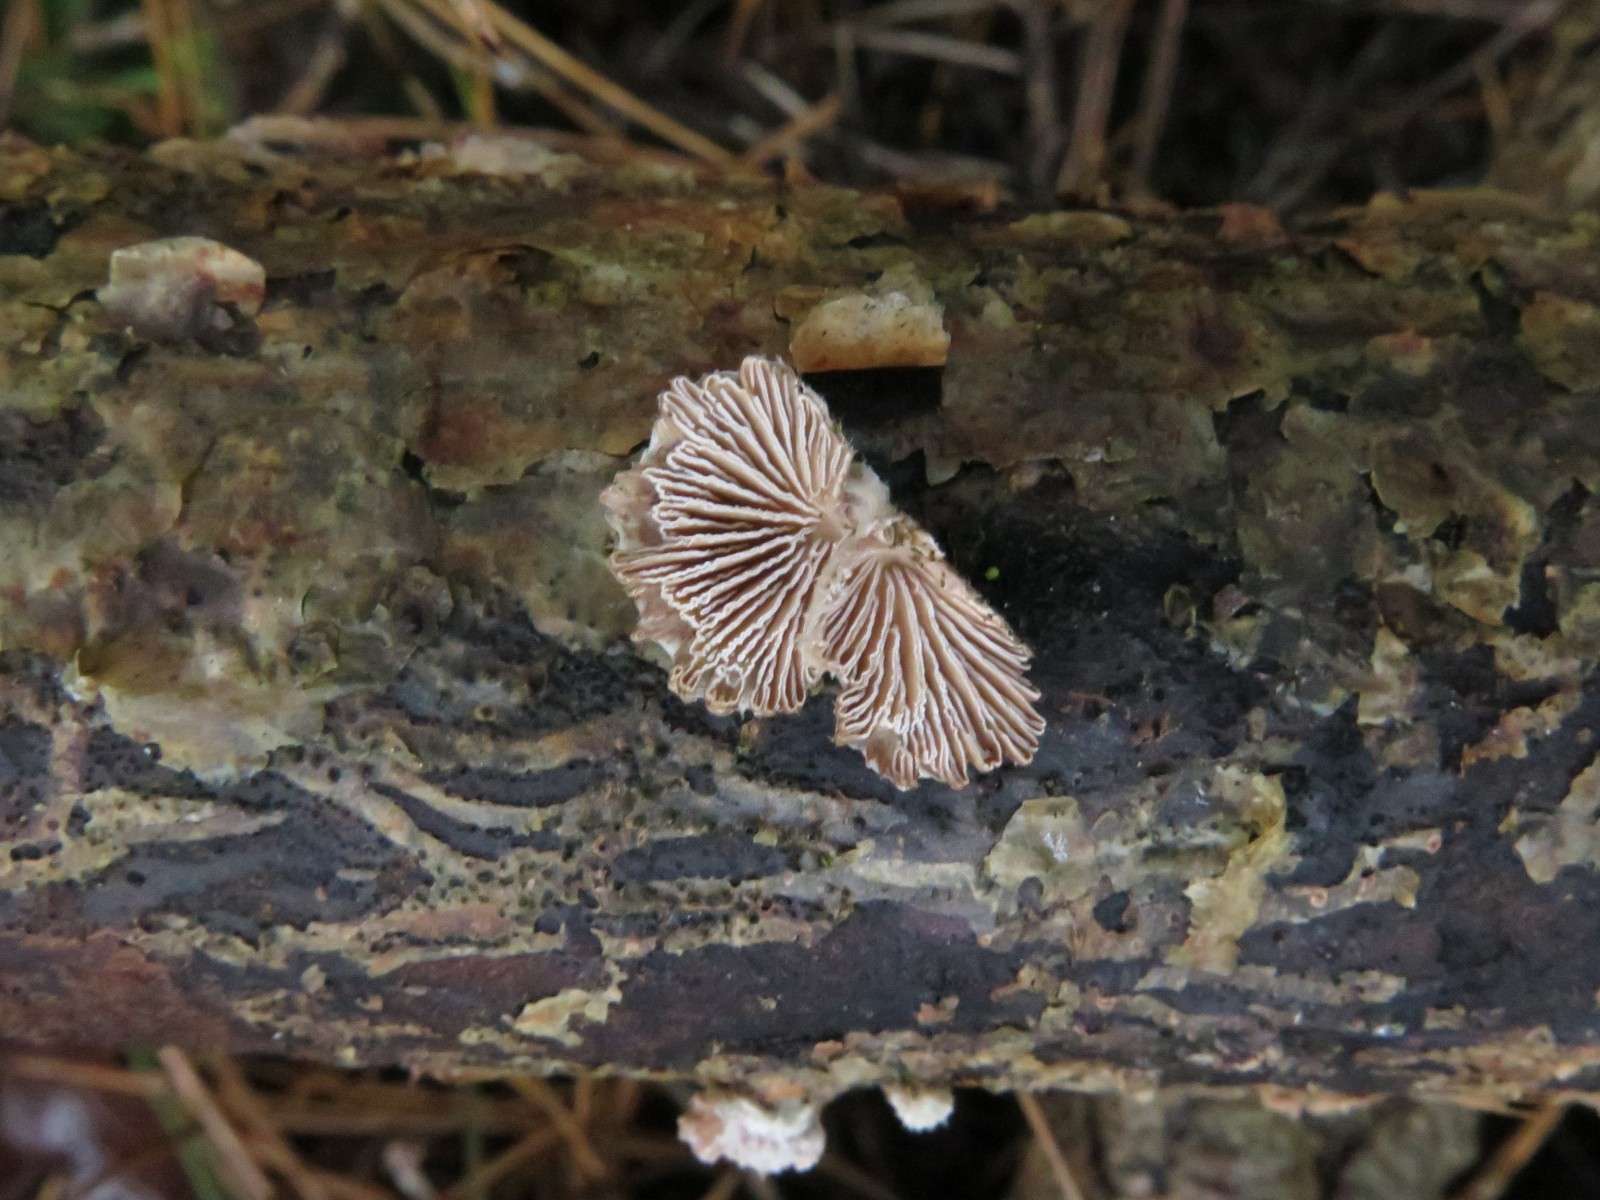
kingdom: Fungi
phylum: Basidiomycota
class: Agaricomycetes
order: Agaricales
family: Schizophyllaceae
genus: Schizophyllum
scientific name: Schizophyllum commune
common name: kløvblad
